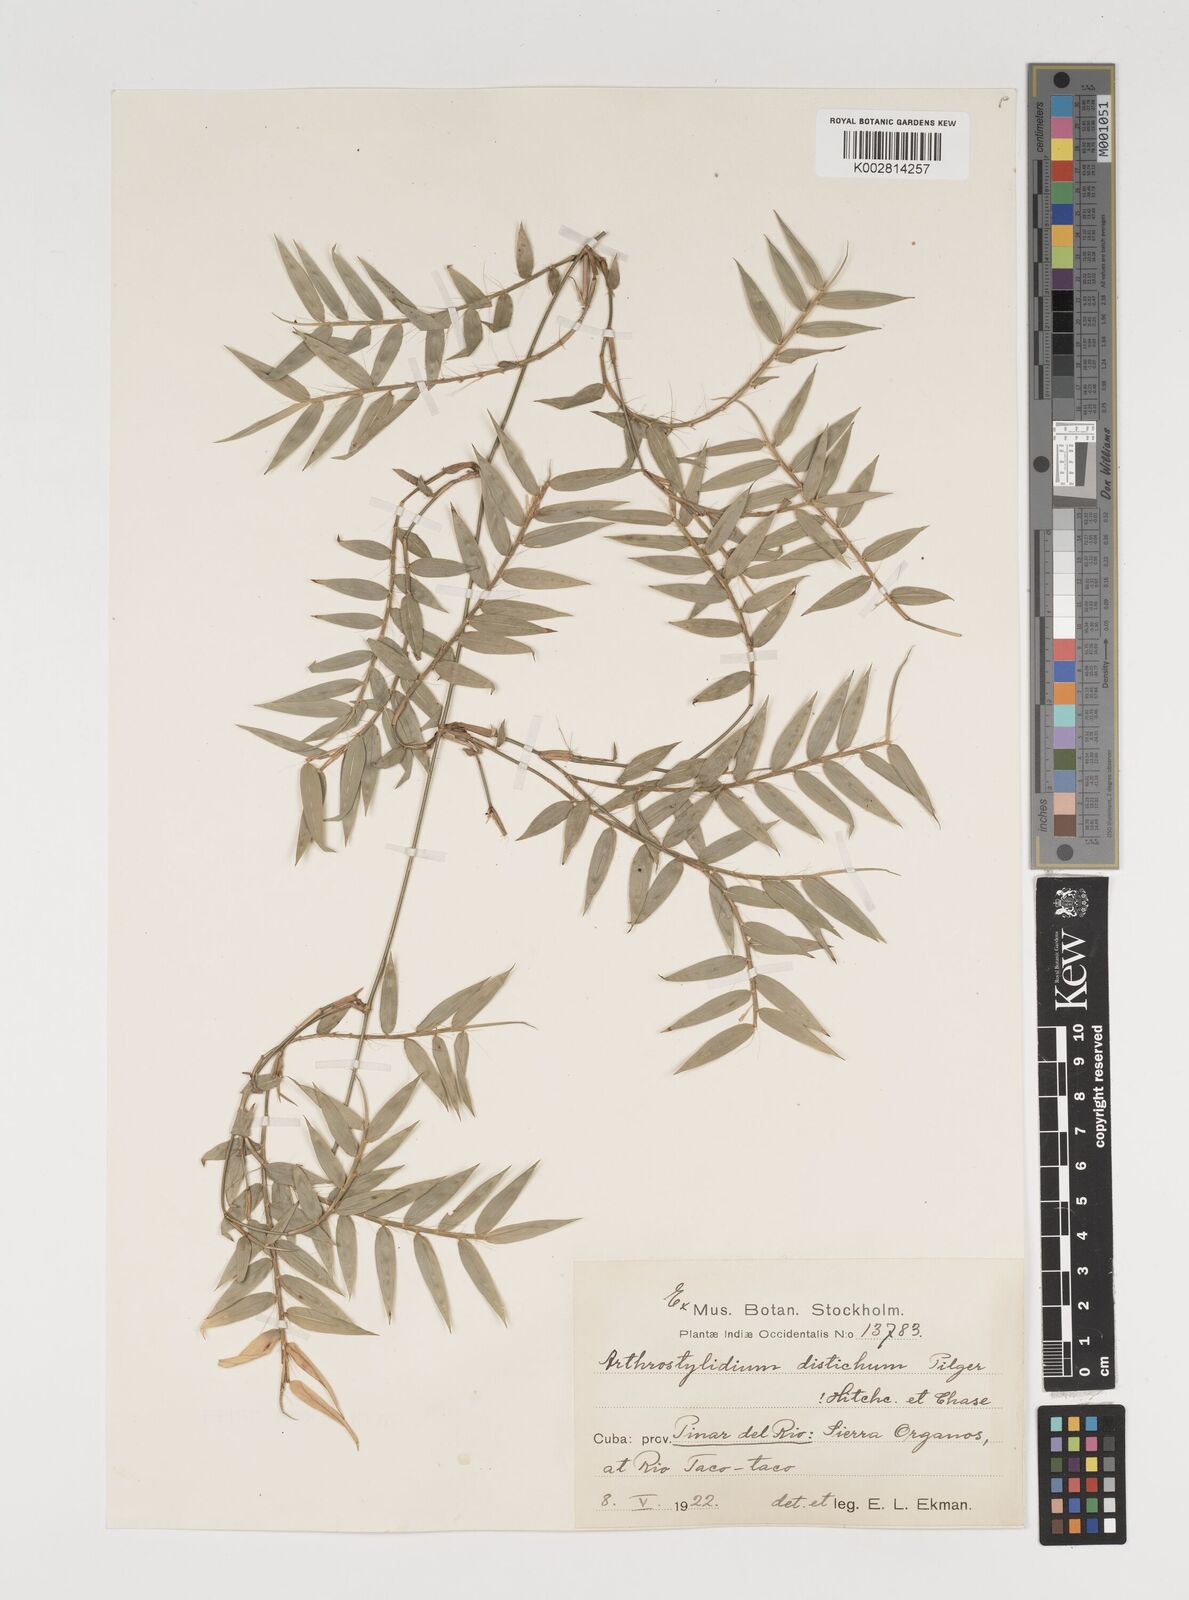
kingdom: Plantae
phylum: Tracheophyta
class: Liliopsida
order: Poales
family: Poaceae
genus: Arthrostylidium
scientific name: Arthrostylidium distichum
